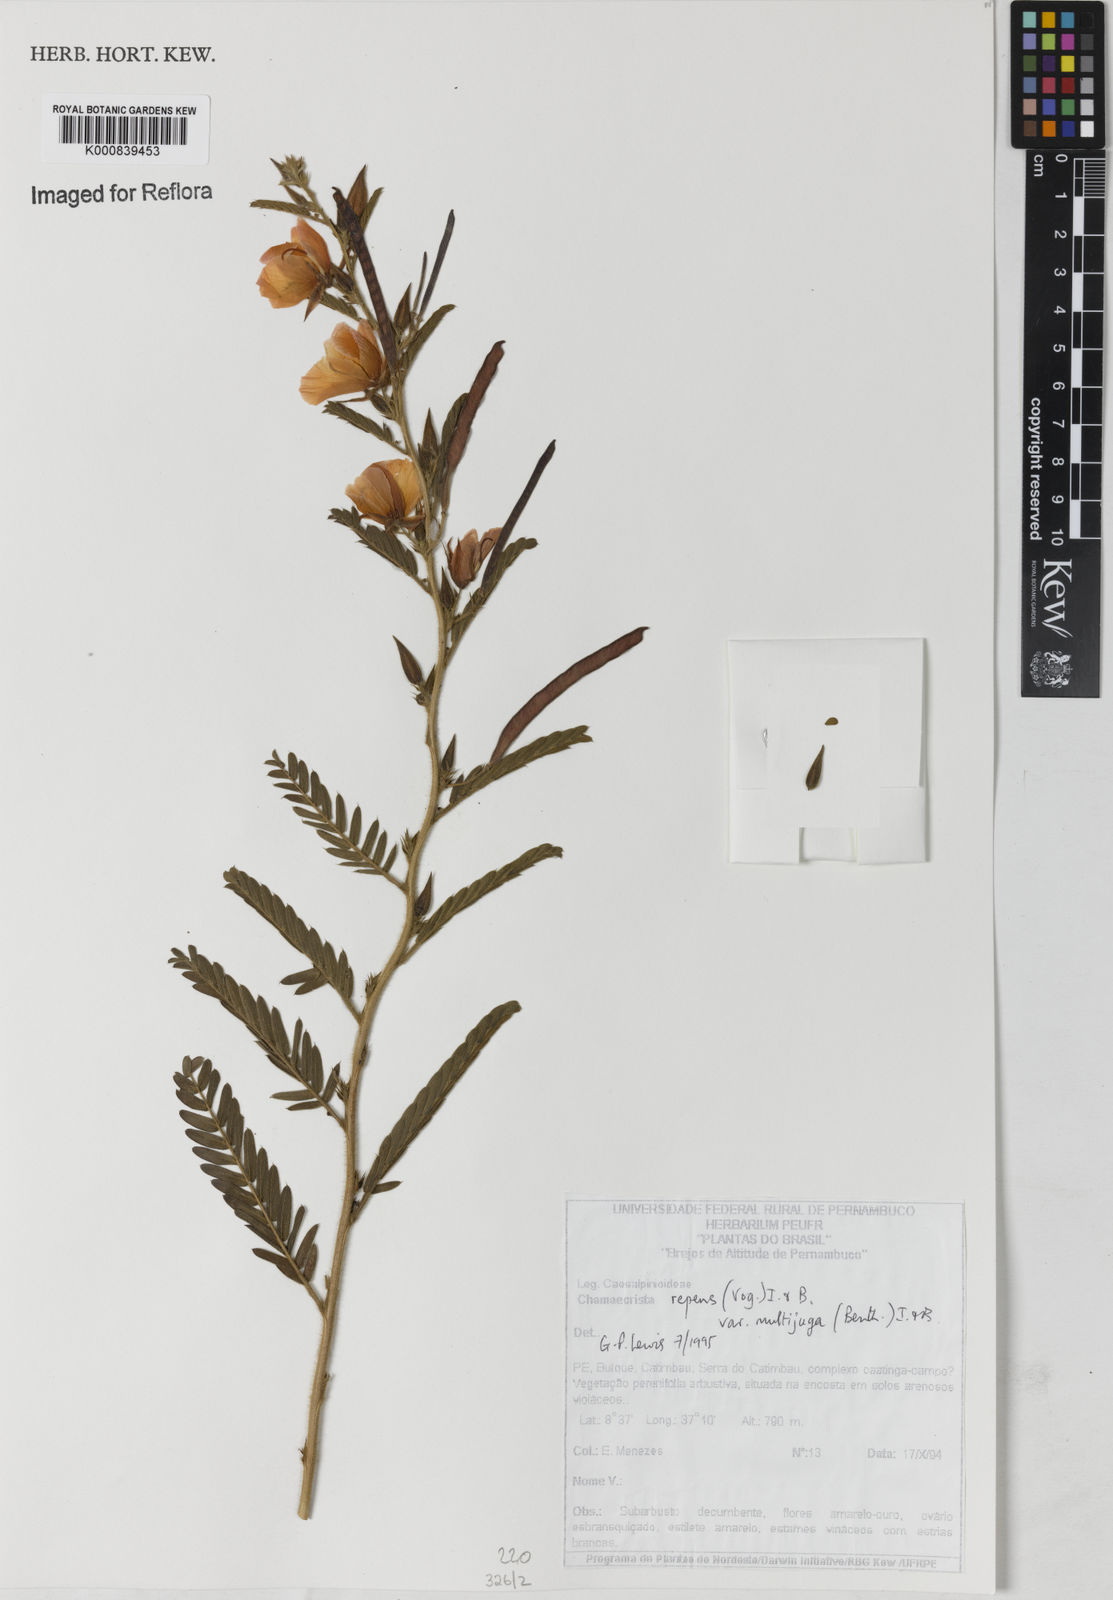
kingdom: Plantae
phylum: Tracheophyta
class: Magnoliopsida
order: Fabales
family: Fabaceae
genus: Chamaecrista
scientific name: Chamaecrista repens
